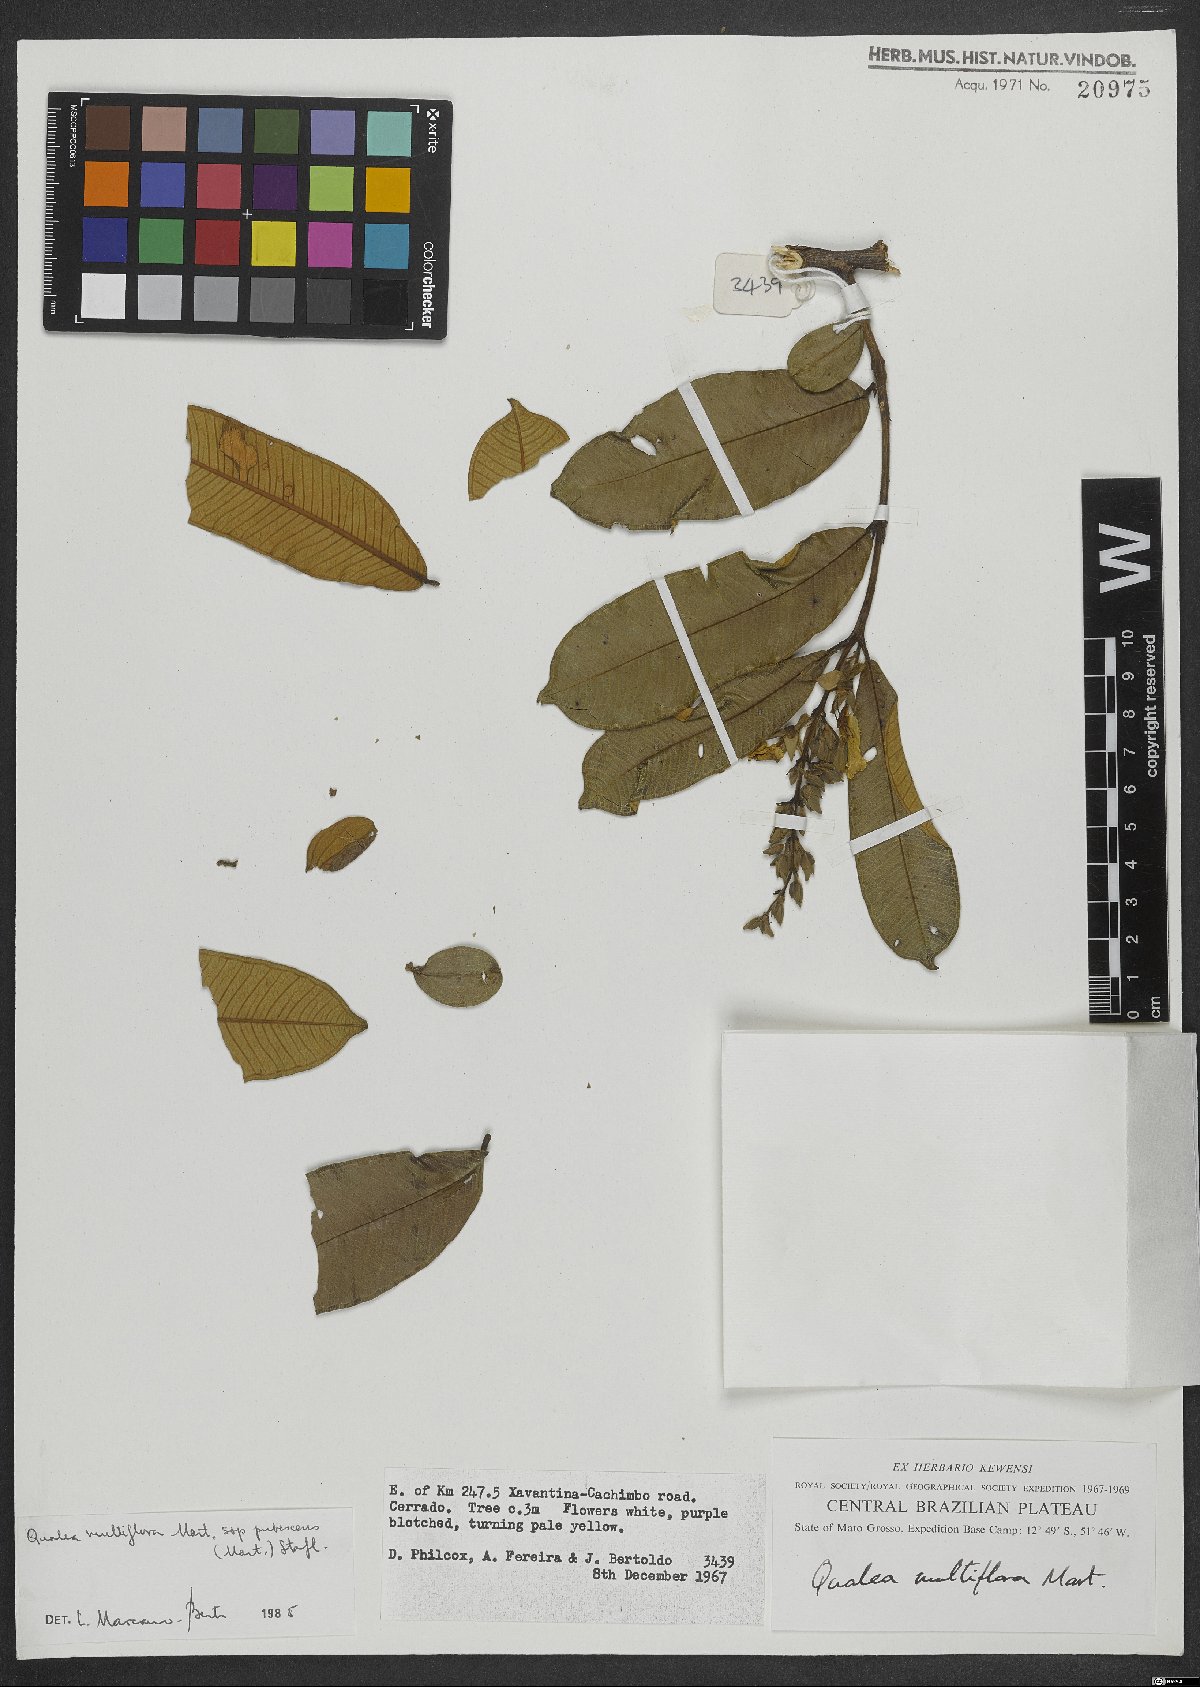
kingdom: Plantae
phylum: Tracheophyta
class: Magnoliopsida
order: Myrtales
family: Vochysiaceae
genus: Qualea
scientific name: Qualea multiflora
